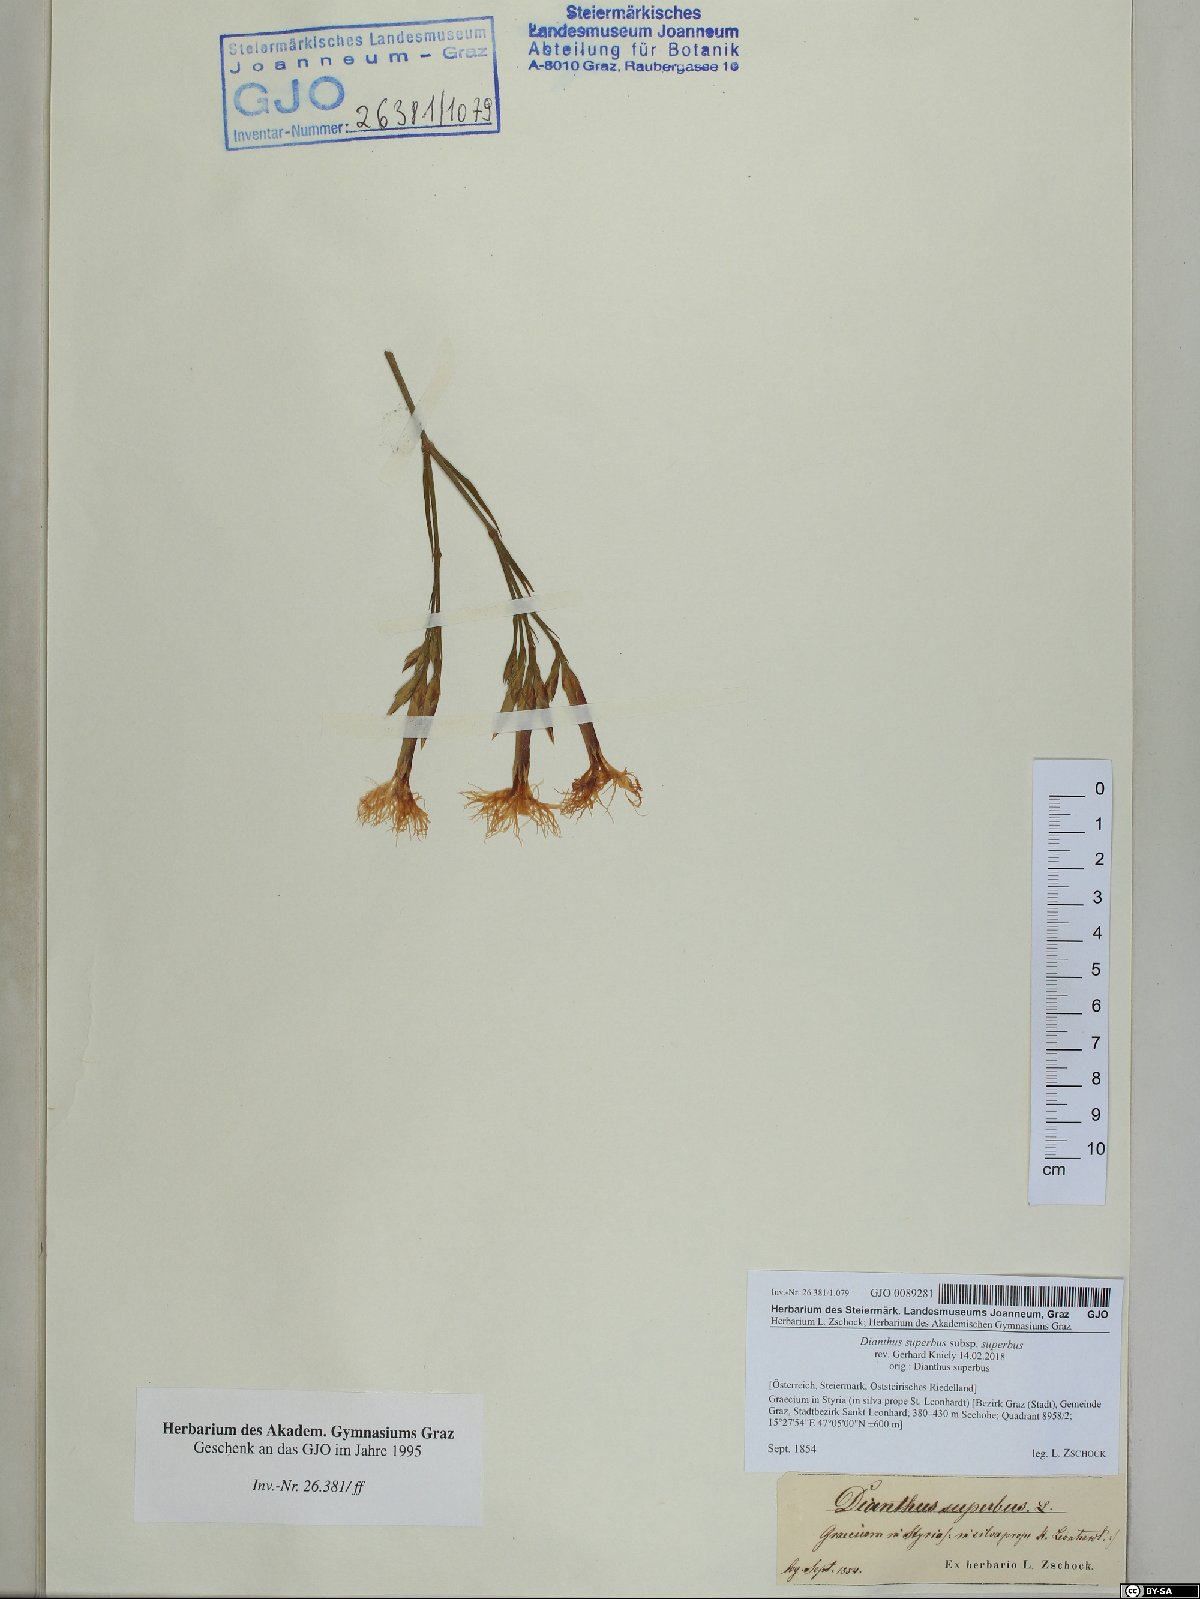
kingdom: Plantae
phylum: Tracheophyta
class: Magnoliopsida
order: Caryophyllales
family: Caryophyllaceae
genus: Dianthus
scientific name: Dianthus superbus
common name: Fringed pink
